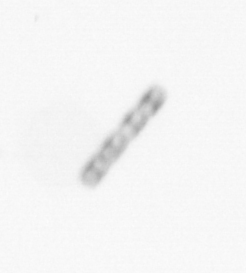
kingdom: Chromista
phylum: Ochrophyta
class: Bacillariophyceae
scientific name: Bacillariophyceae
